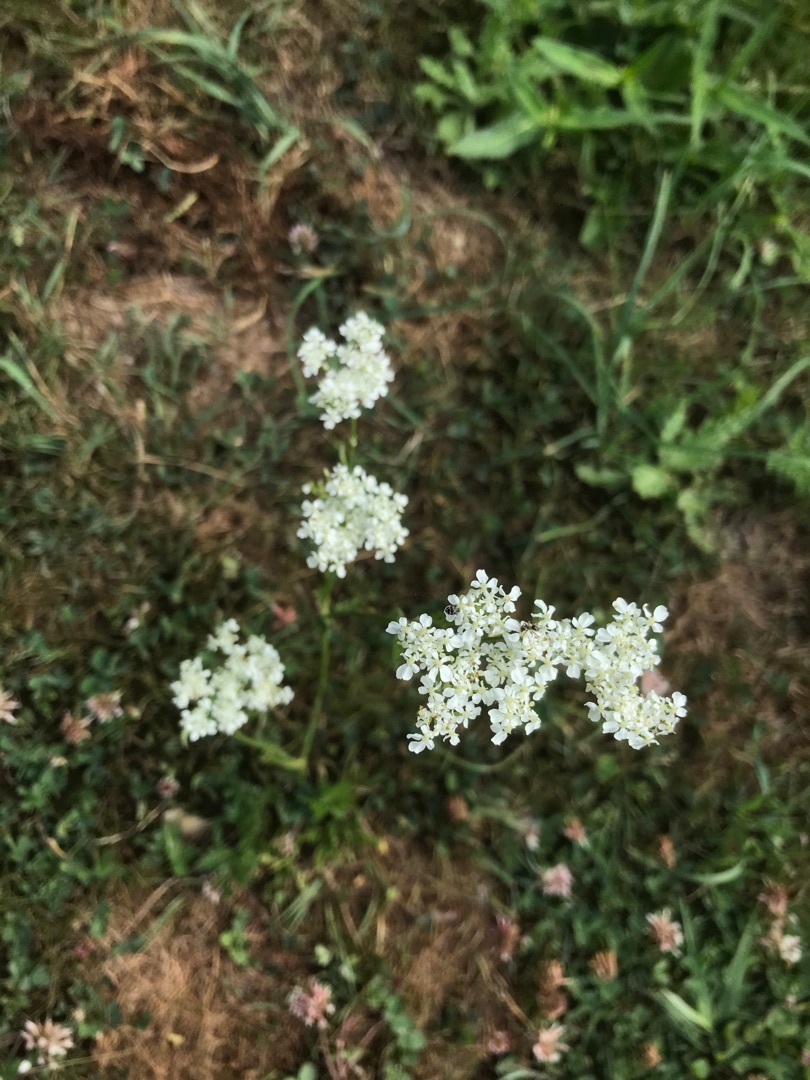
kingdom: Plantae
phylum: Tracheophyta
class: Magnoliopsida
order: Asterales
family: Asteraceae
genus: Achillea
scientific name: Achillea millefolium
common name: Almindelig røllike
